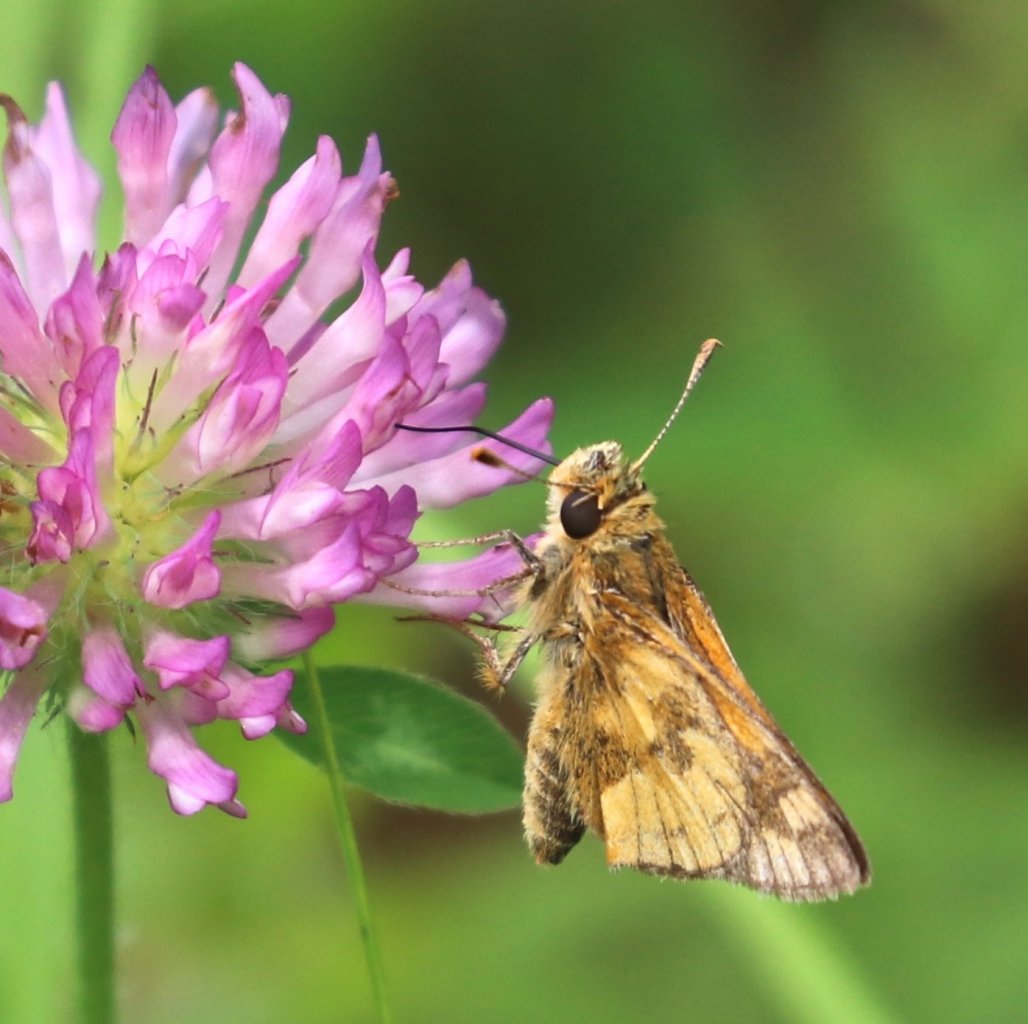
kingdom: Animalia
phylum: Arthropoda
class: Insecta
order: Lepidoptera
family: Hesperiidae
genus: Polites
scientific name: Polites coras
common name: Peck's Skipper
